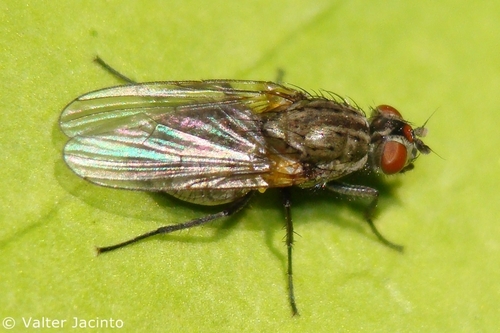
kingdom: Animalia
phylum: Arthropoda
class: Insecta
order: Diptera
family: Anthomyiidae
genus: Paregle
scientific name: Paregle audacula
